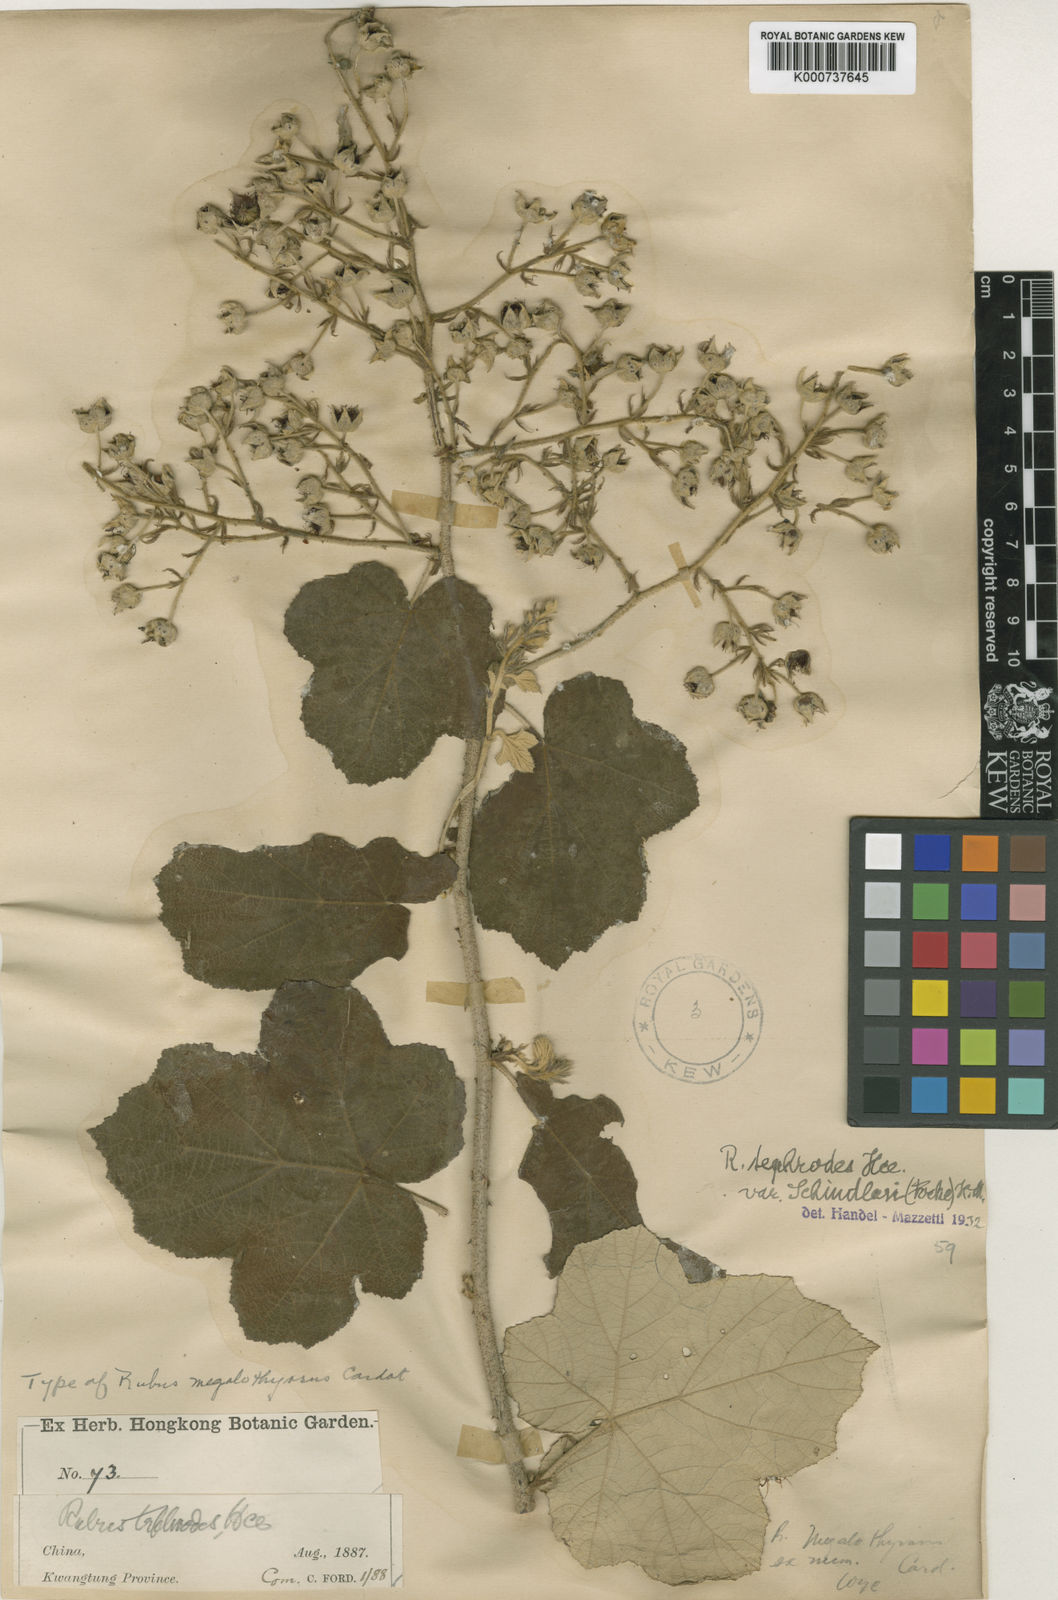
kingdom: Plantae
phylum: Tracheophyta
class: Magnoliopsida
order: Rosales
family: Rosaceae
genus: Rubus
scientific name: Rubus tephrodes
